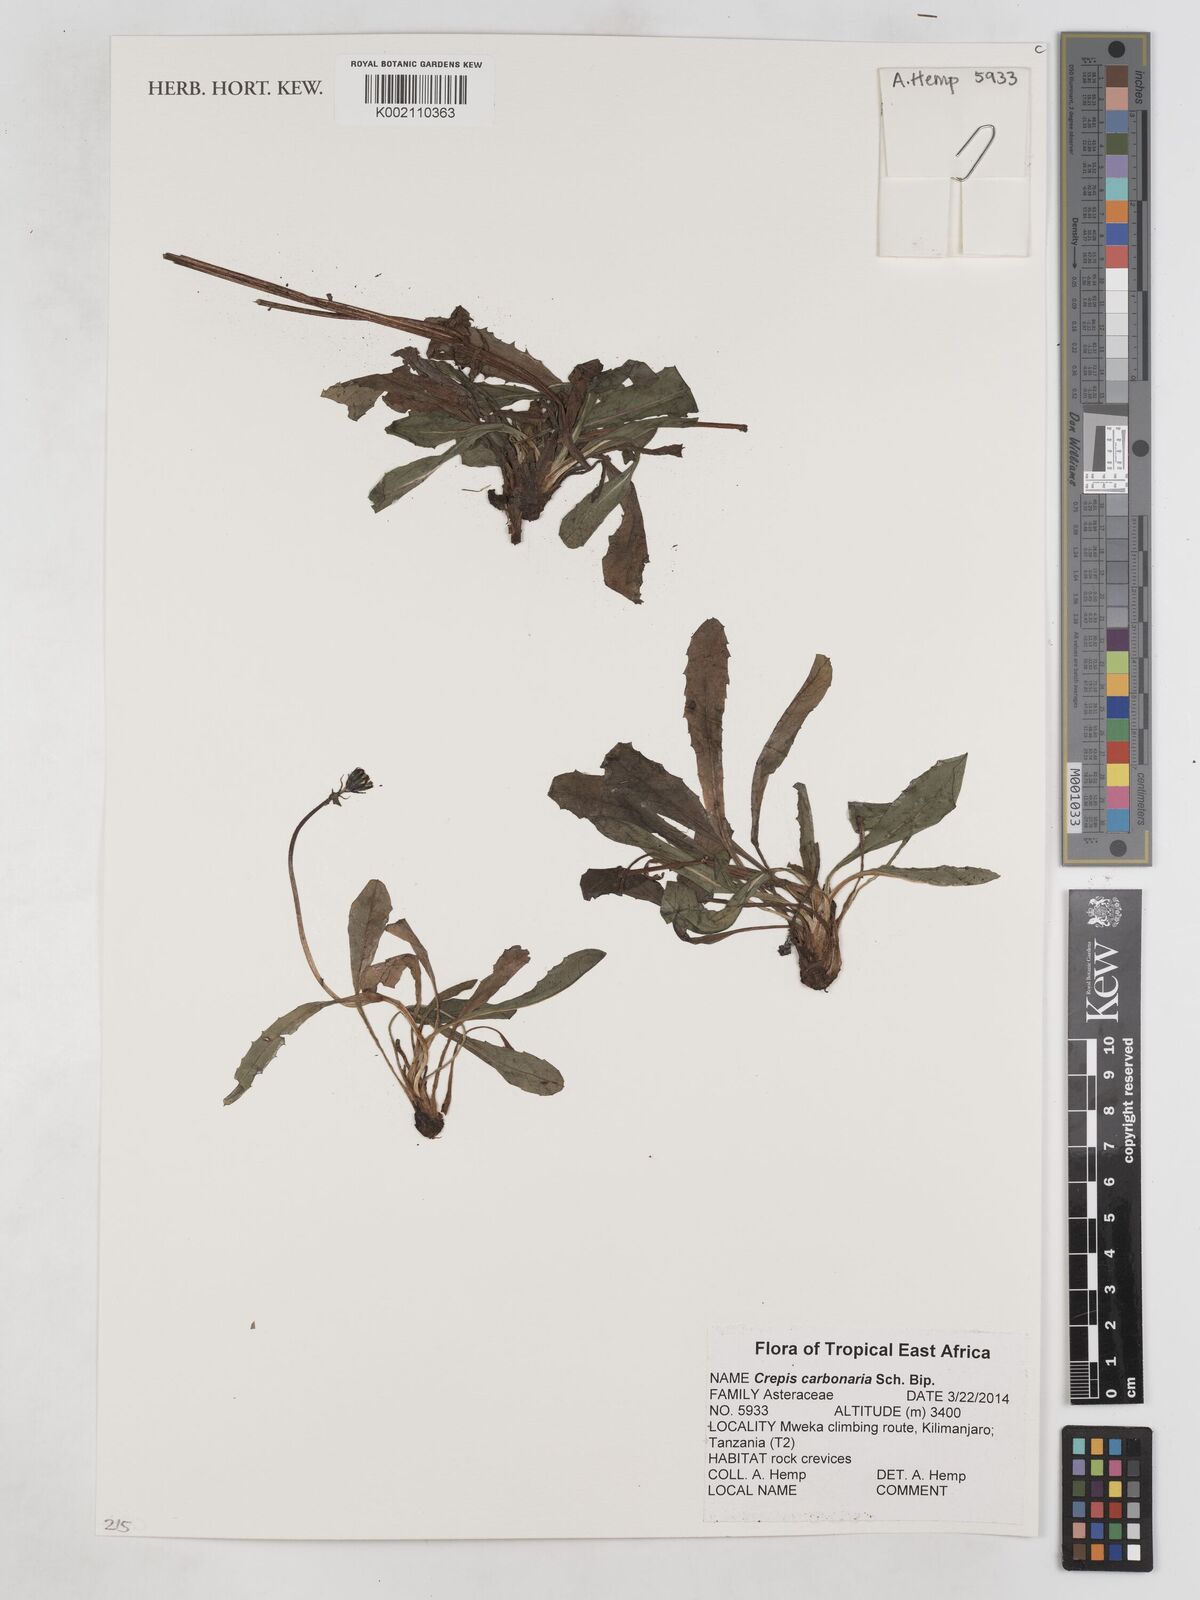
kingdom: Plantae
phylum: Tracheophyta
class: Magnoliopsida
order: Asterales
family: Asteraceae
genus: Crepis
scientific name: Crepis carbonaria
